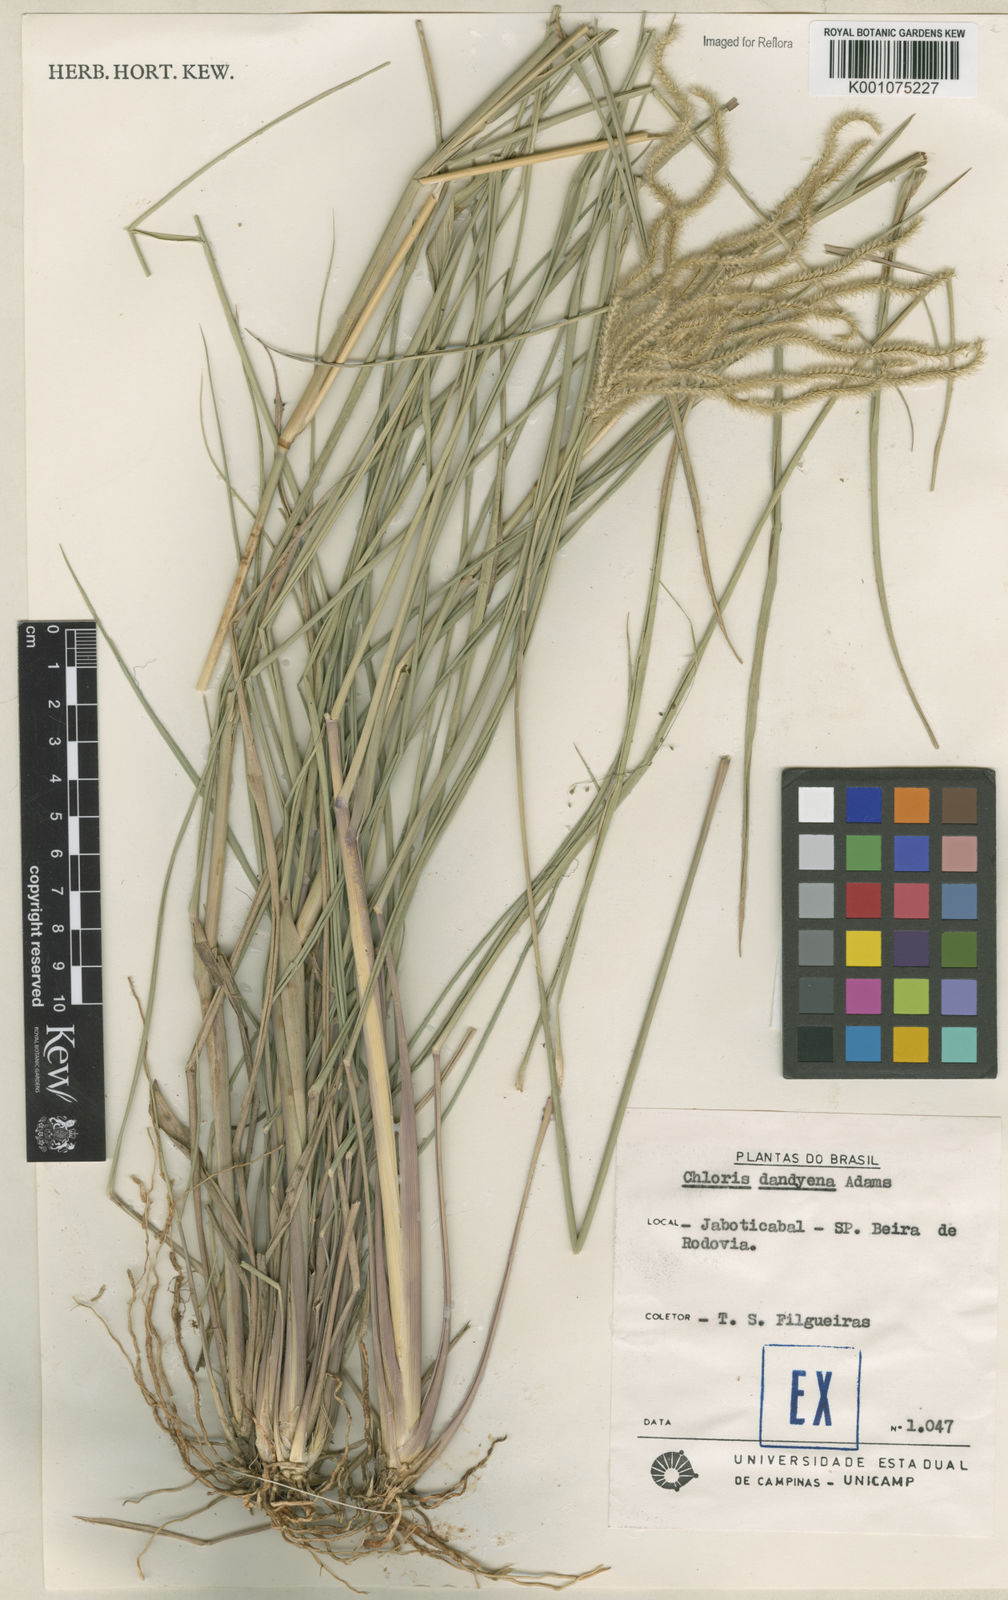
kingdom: Plantae
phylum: Tracheophyta
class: Liliopsida
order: Poales
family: Poaceae
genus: Stapfochloa
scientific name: Stapfochloa elata
